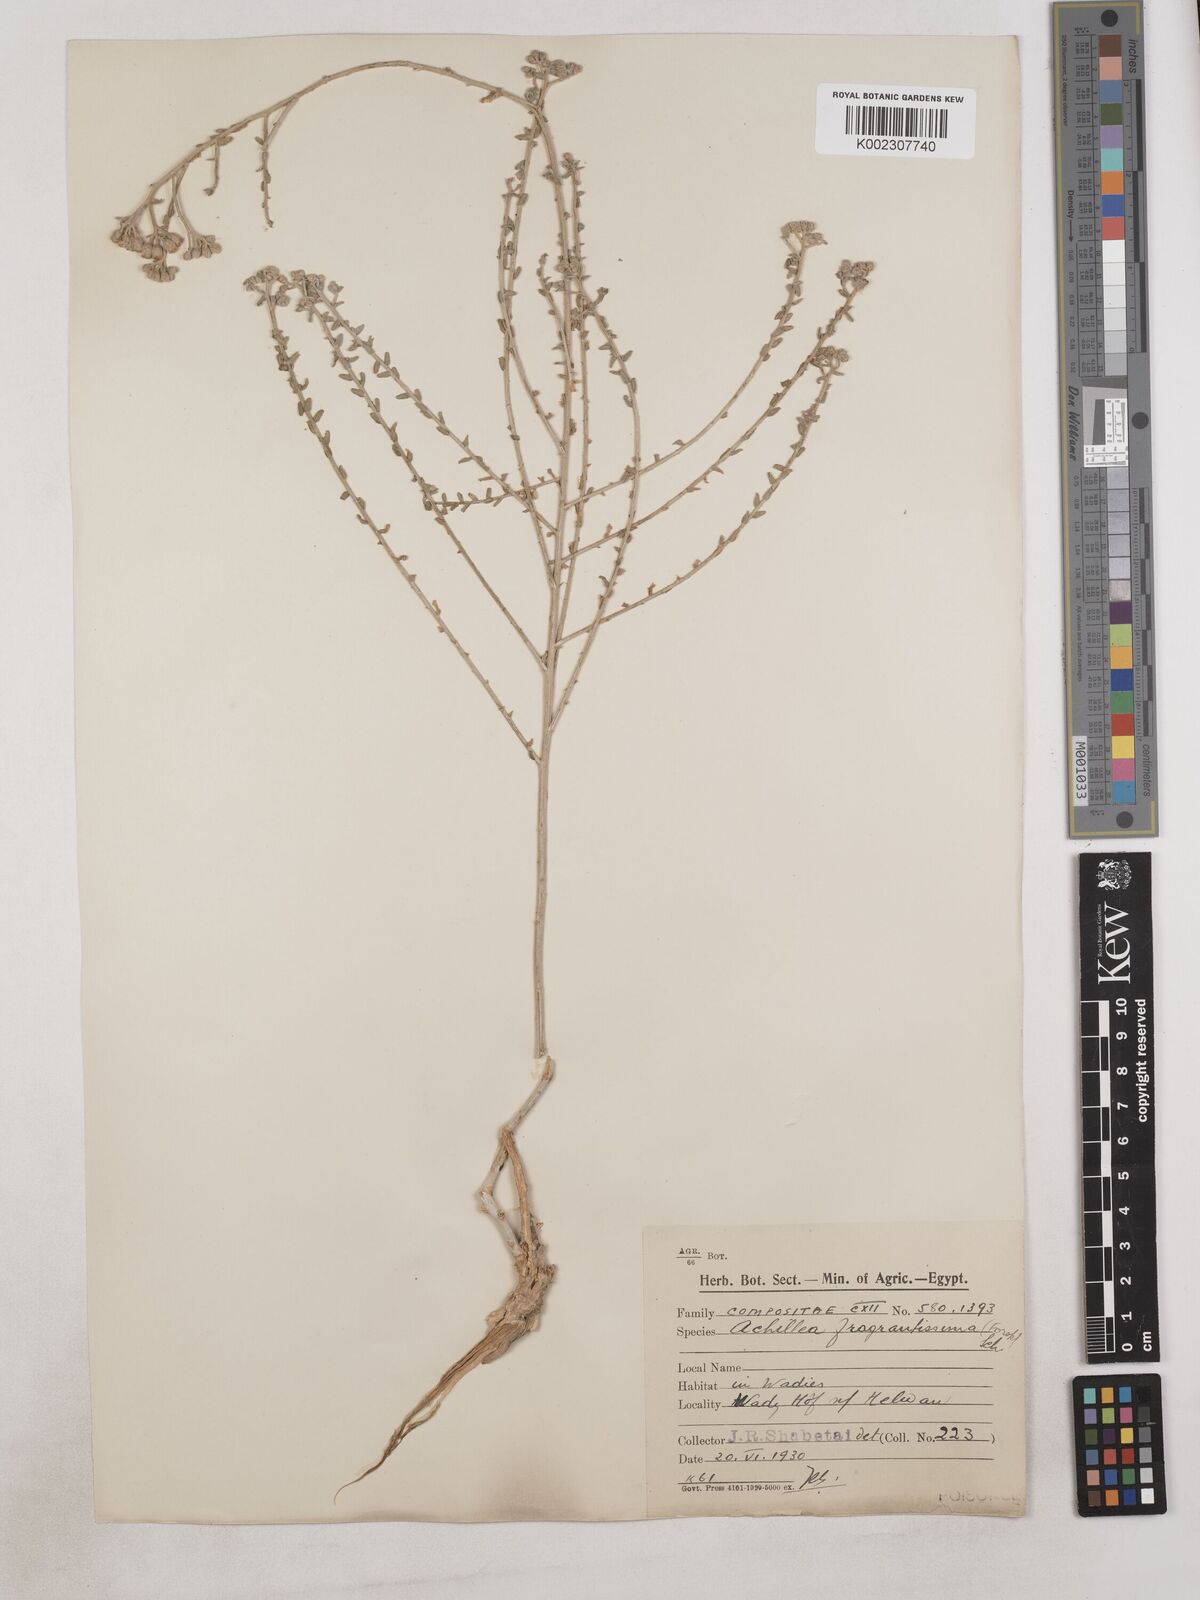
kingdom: Plantae
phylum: Tracheophyta
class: Magnoliopsida
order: Asterales
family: Asteraceae
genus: Achillea
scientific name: Achillea fragrantissima
